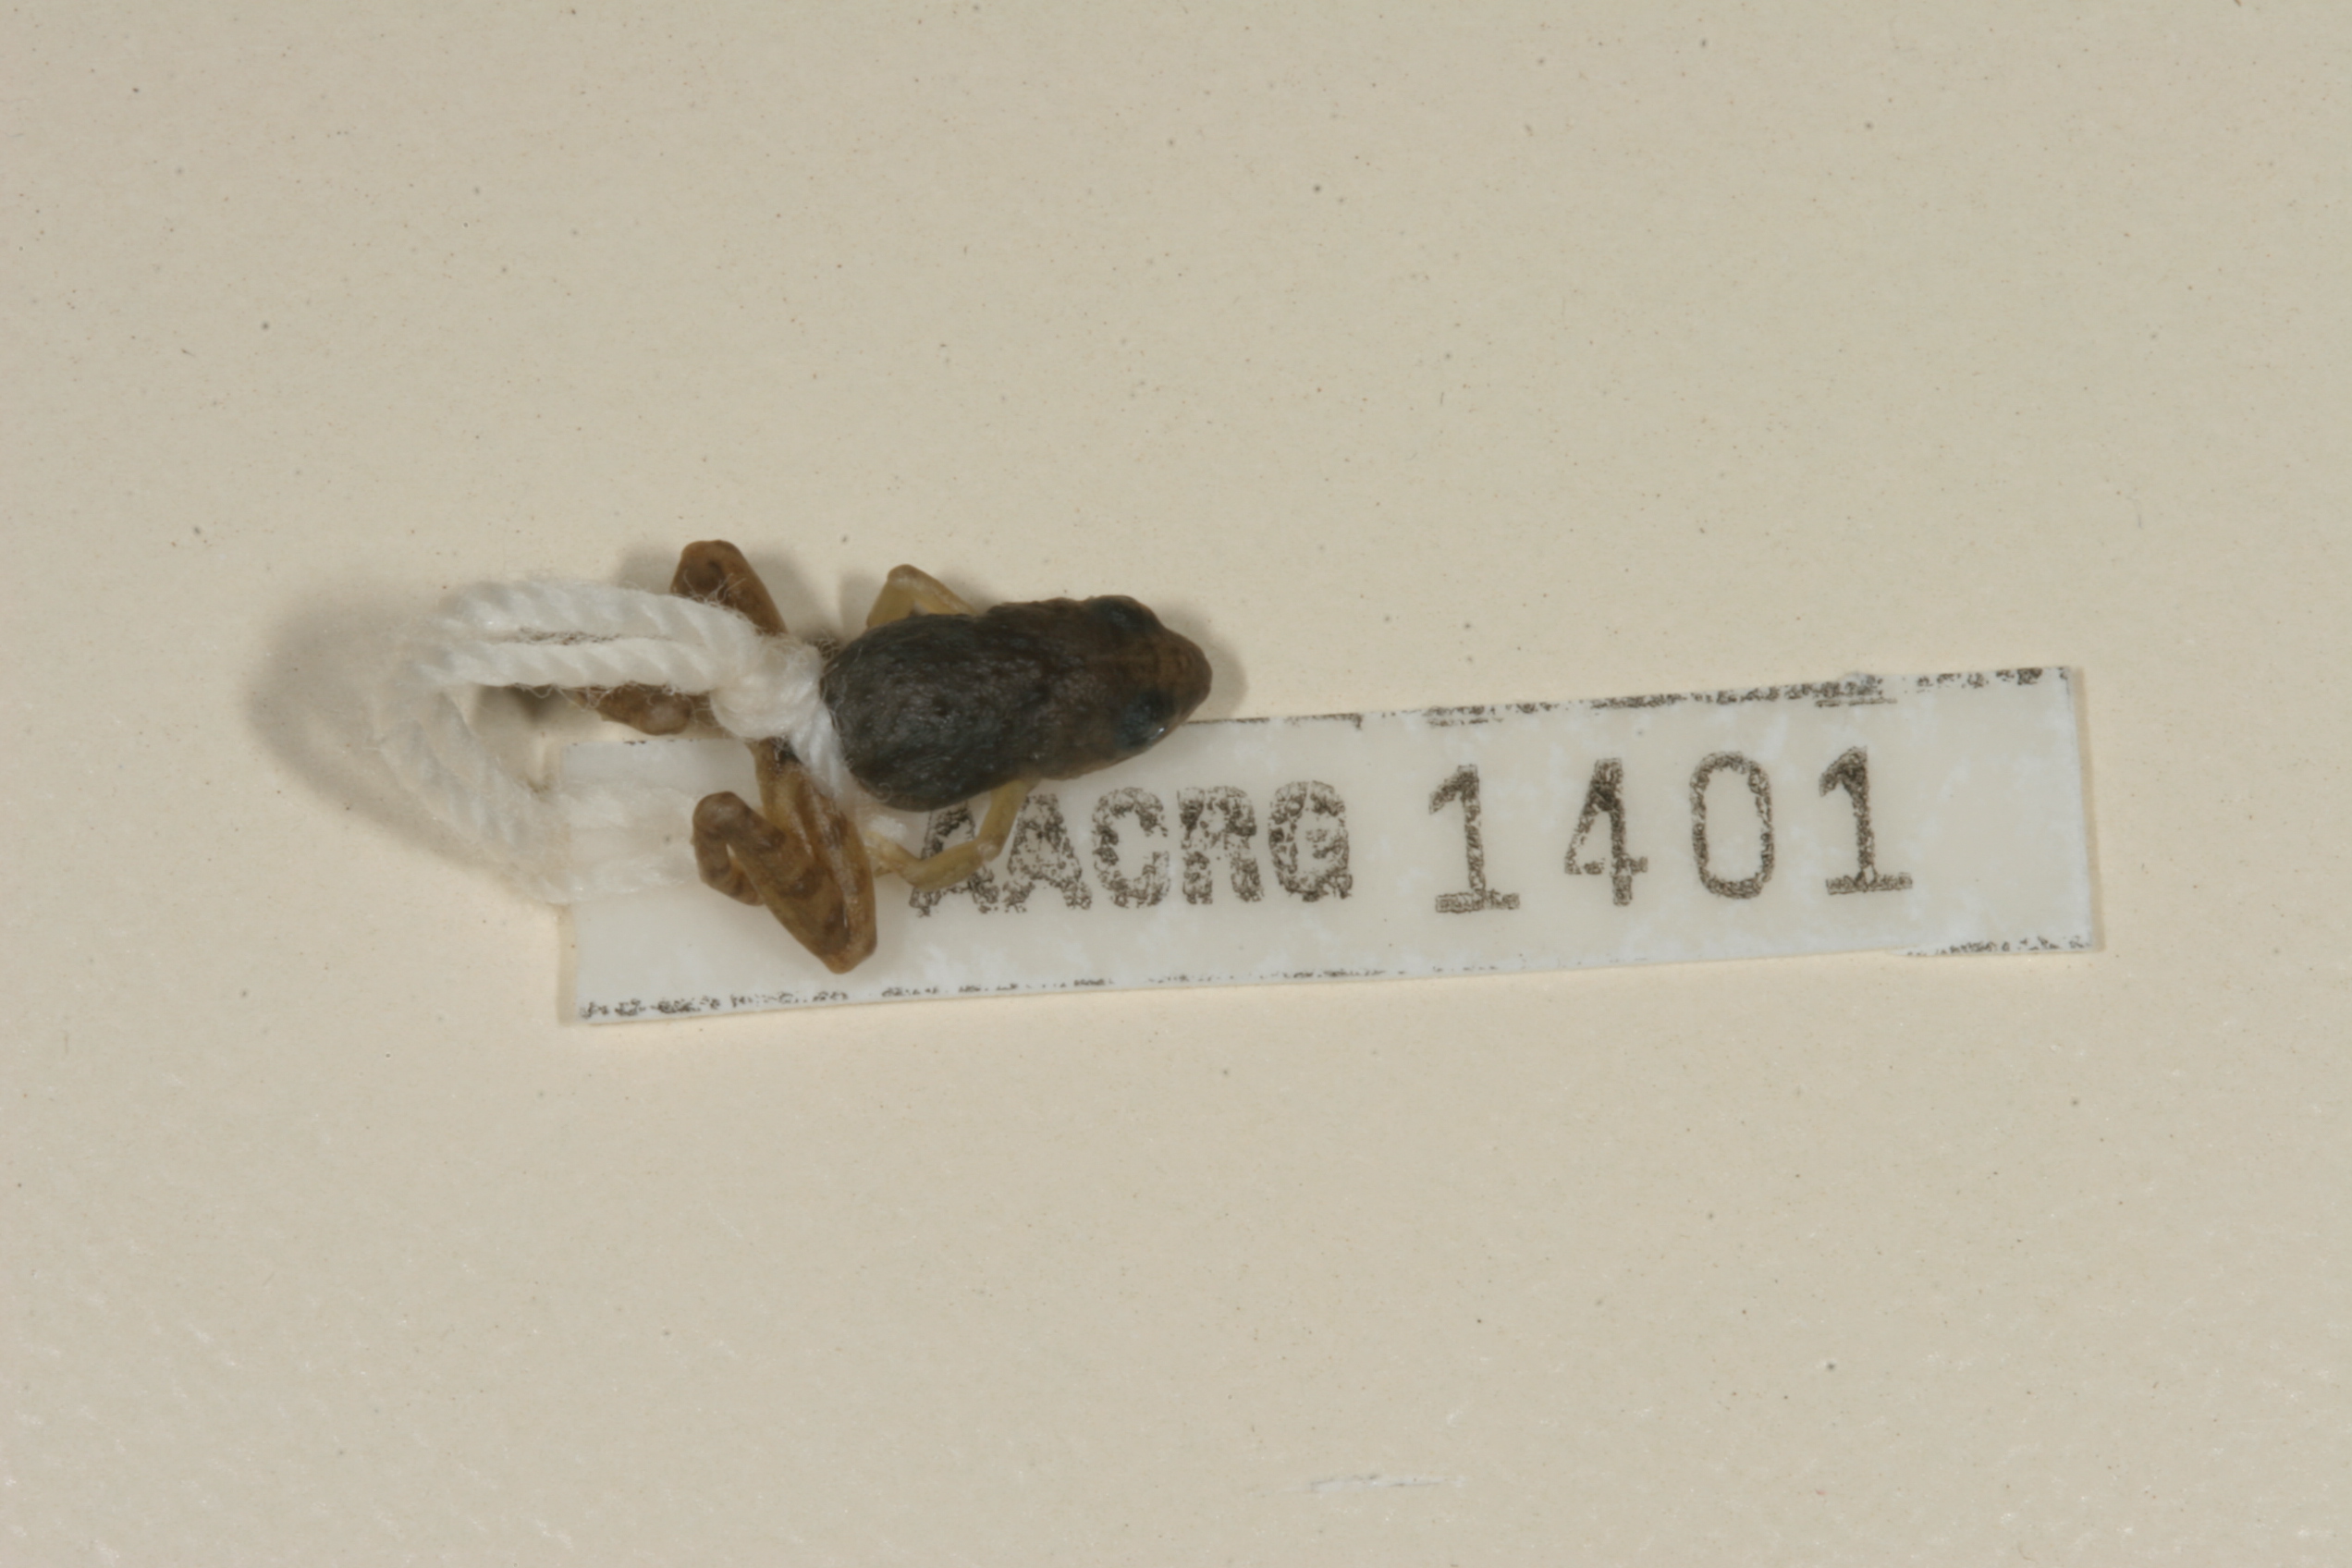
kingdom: Animalia
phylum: Chordata
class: Amphibia
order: Anura
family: Phrynobatrachidae
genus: Phrynobatrachus
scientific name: Phrynobatrachus mababiensis
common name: Dwarf puddle frog
